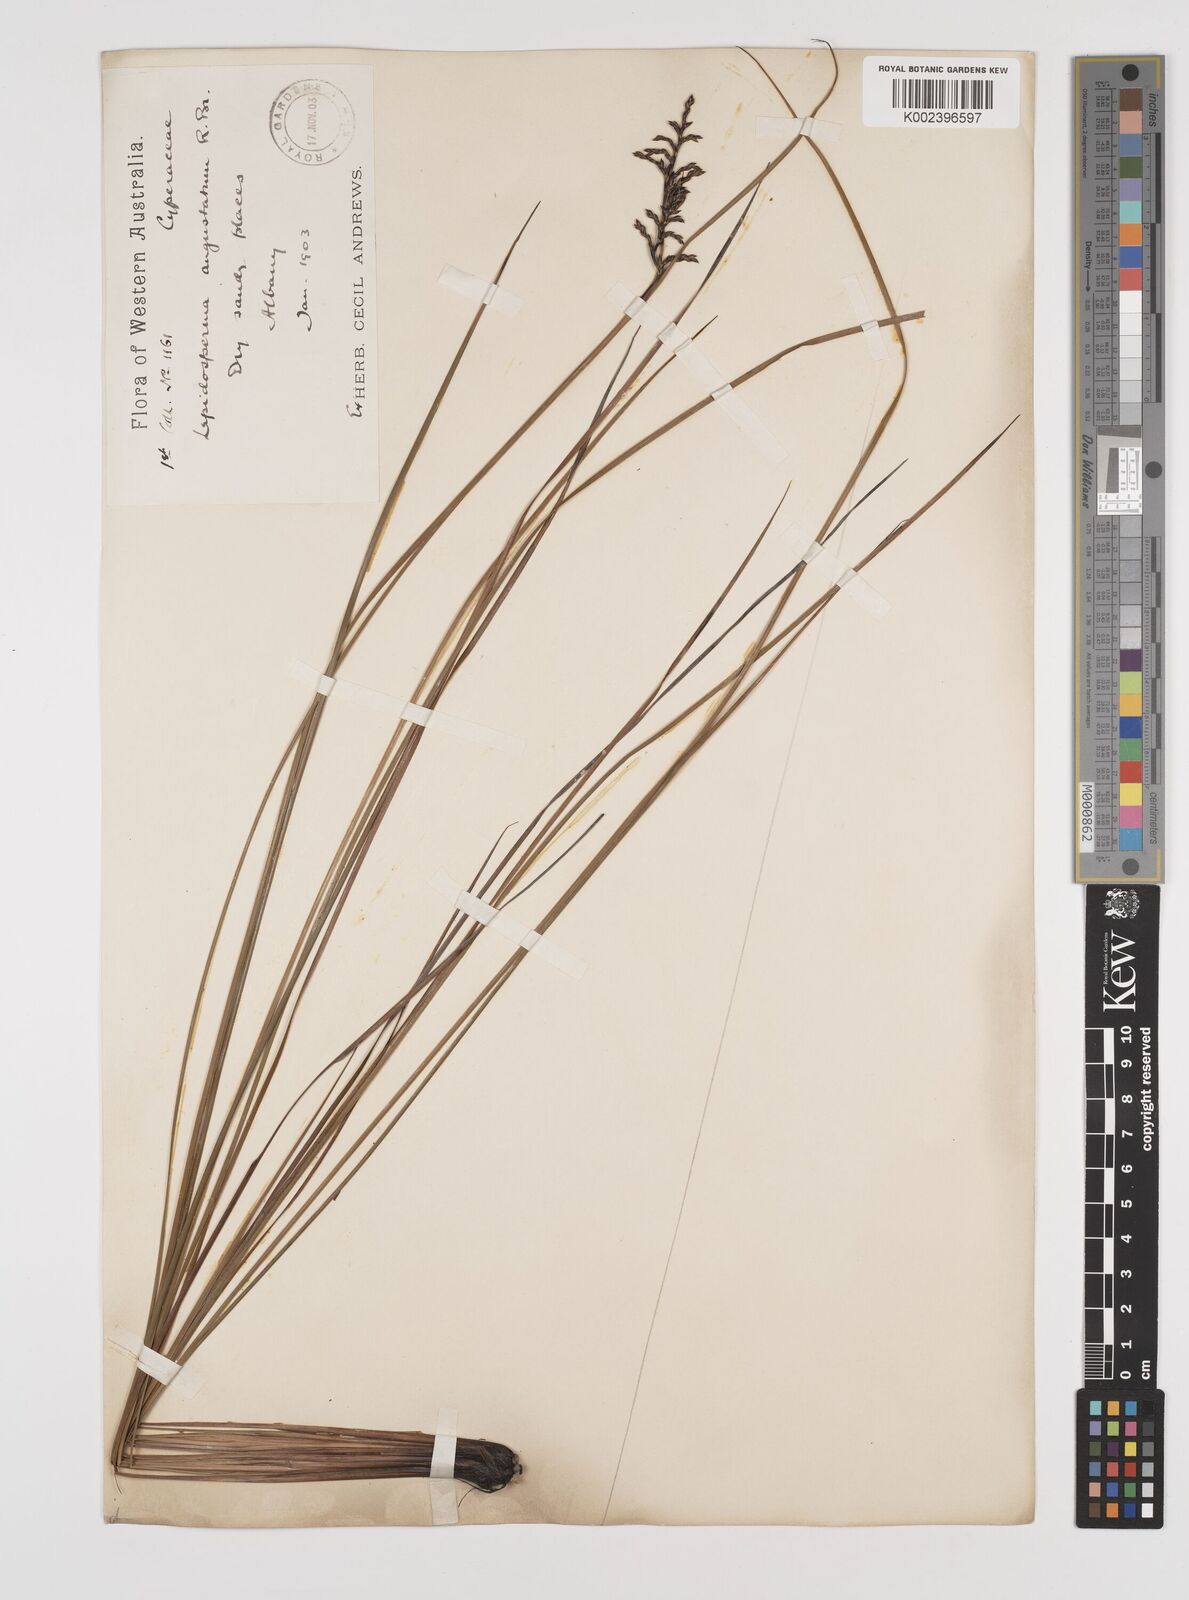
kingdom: Plantae
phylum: Tracheophyta
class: Liliopsida
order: Poales
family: Cyperaceae
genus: Lepidosperma
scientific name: Lepidosperma angustatum
